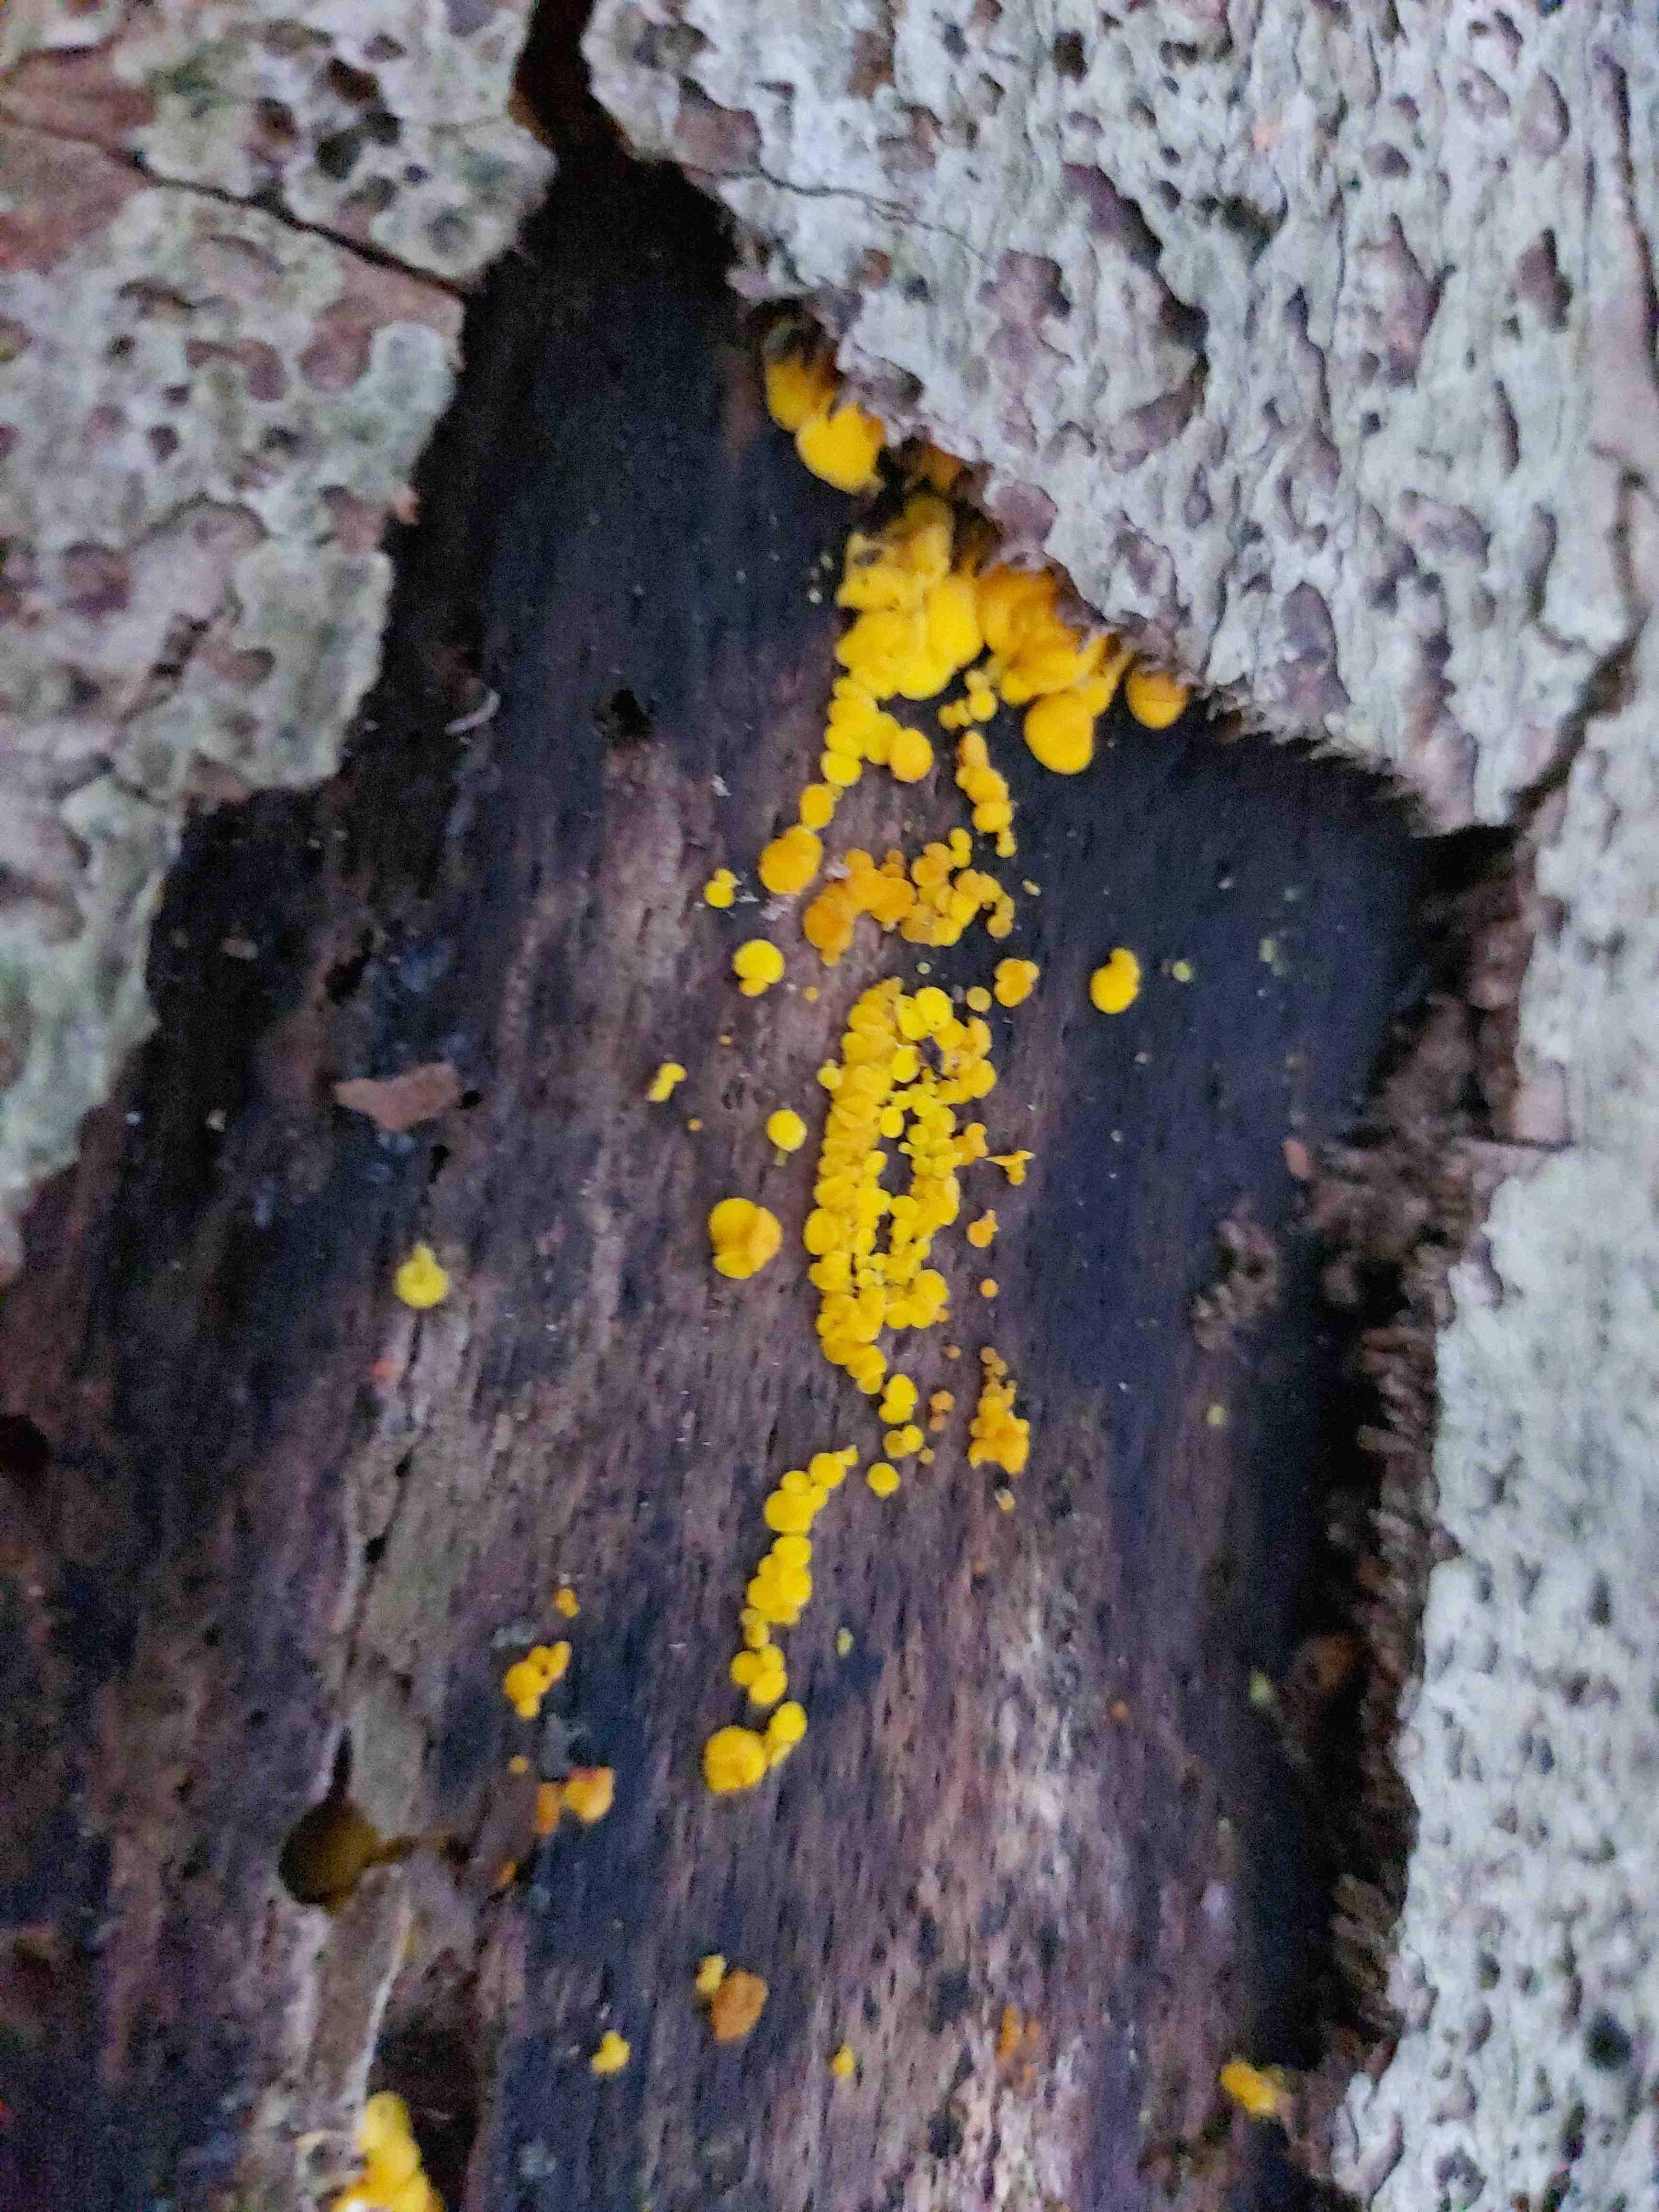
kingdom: Fungi
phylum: Ascomycota
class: Leotiomycetes
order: Helotiales
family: Pezizellaceae
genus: Calycina
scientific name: Calycina citrina
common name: almindelig gulskive
